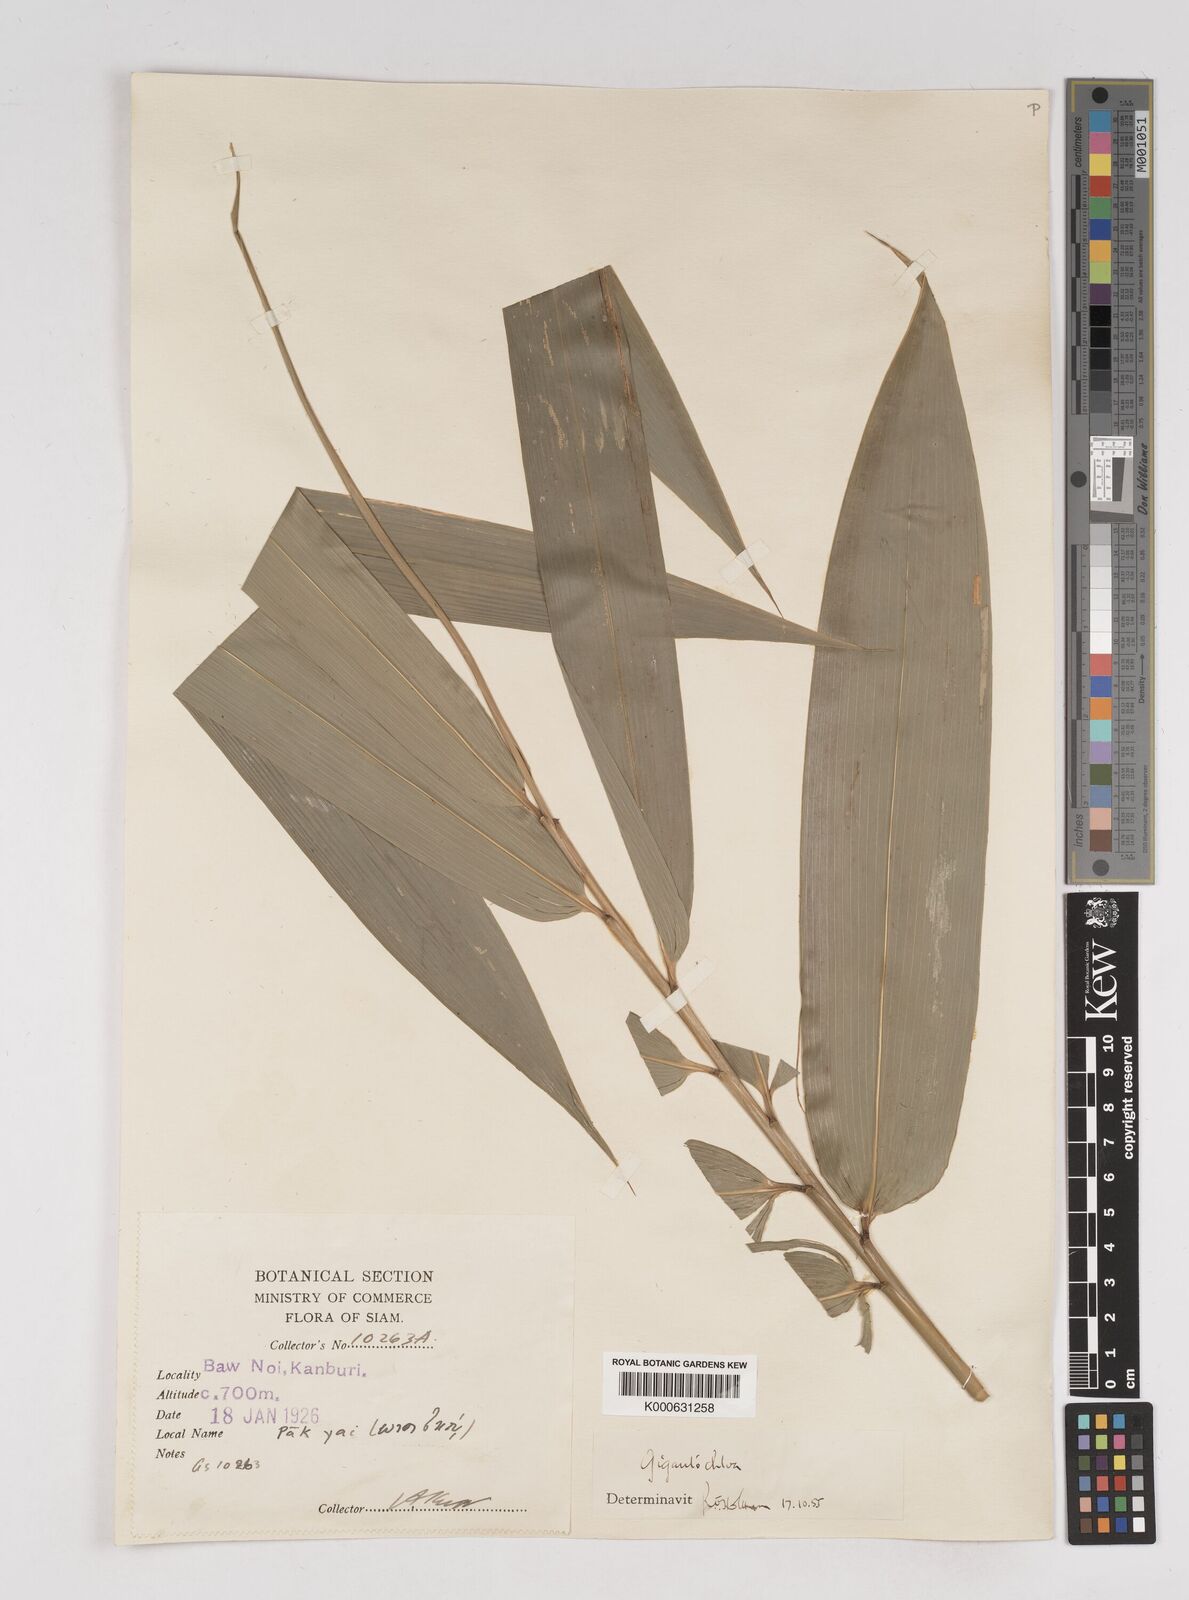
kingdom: Plantae
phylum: Tracheophyta
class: Liliopsida
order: Poales
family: Poaceae
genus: Gigantochloa
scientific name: Gigantochloa
